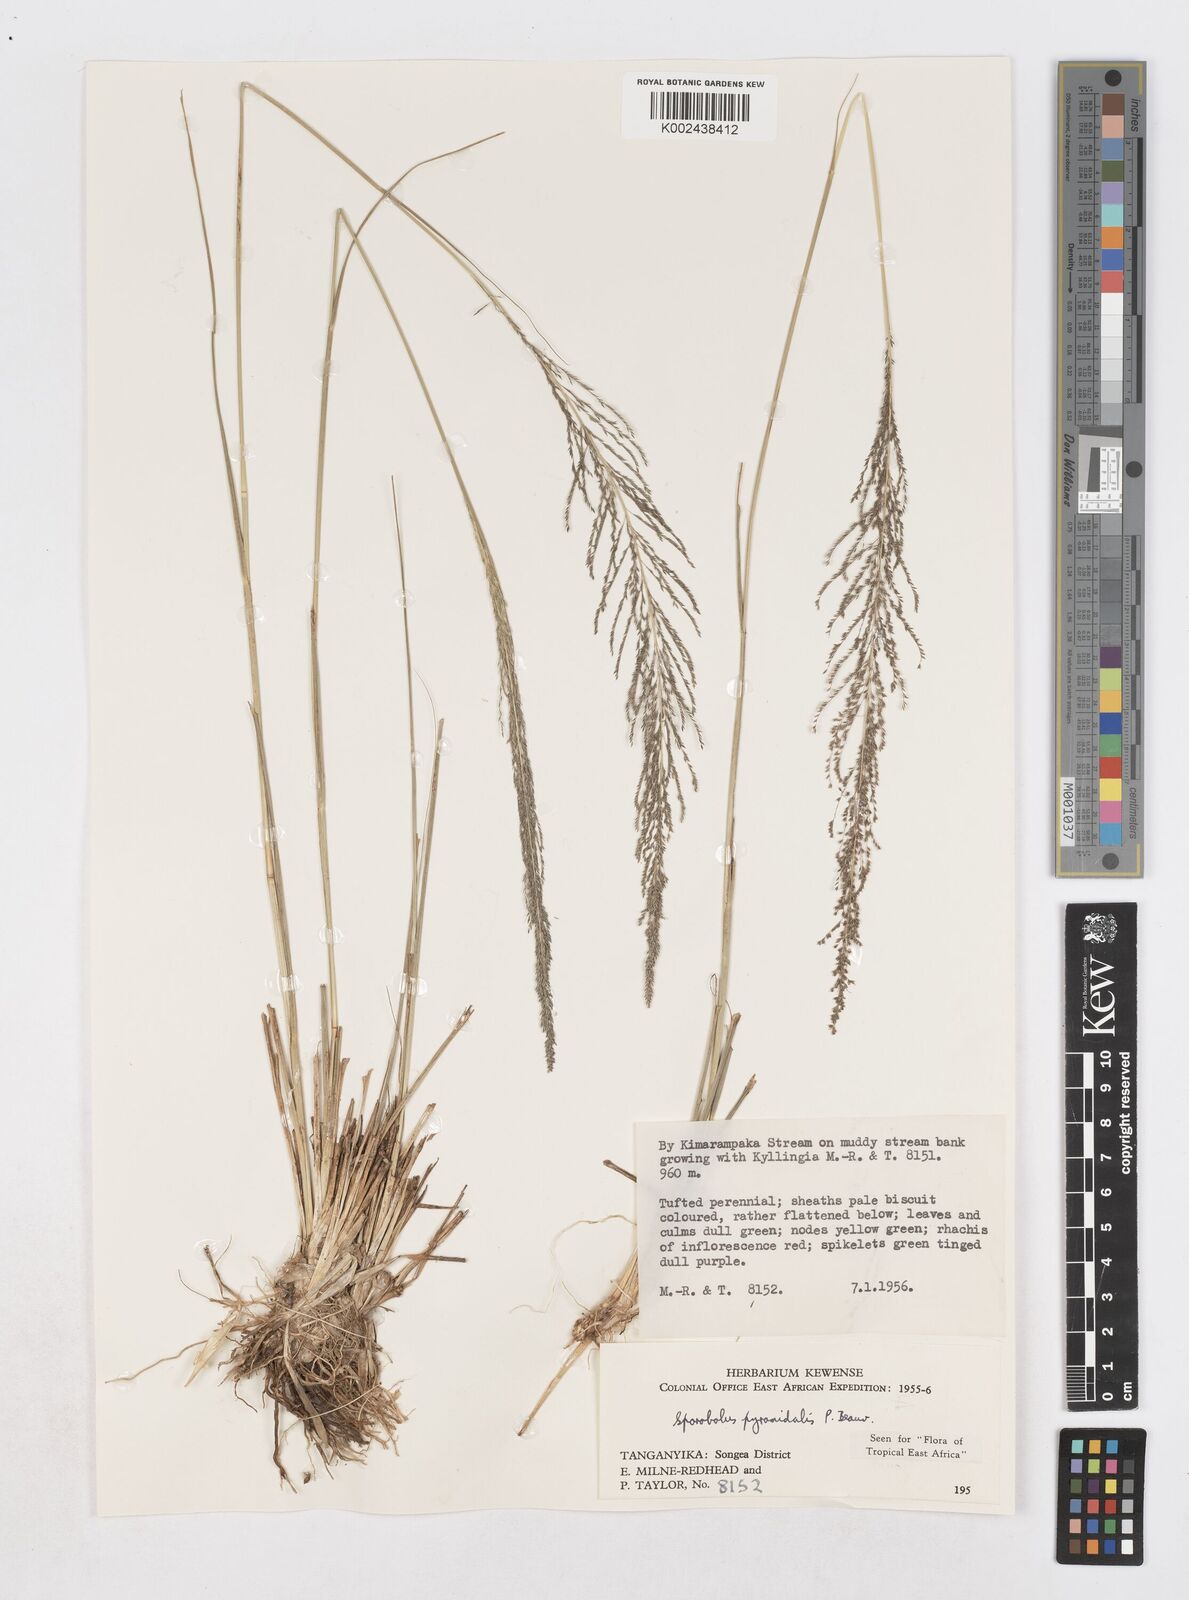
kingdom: Plantae
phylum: Tracheophyta
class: Liliopsida
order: Poales
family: Poaceae
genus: Sporobolus
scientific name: Sporobolus pyramidalis
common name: West indian dropseed
